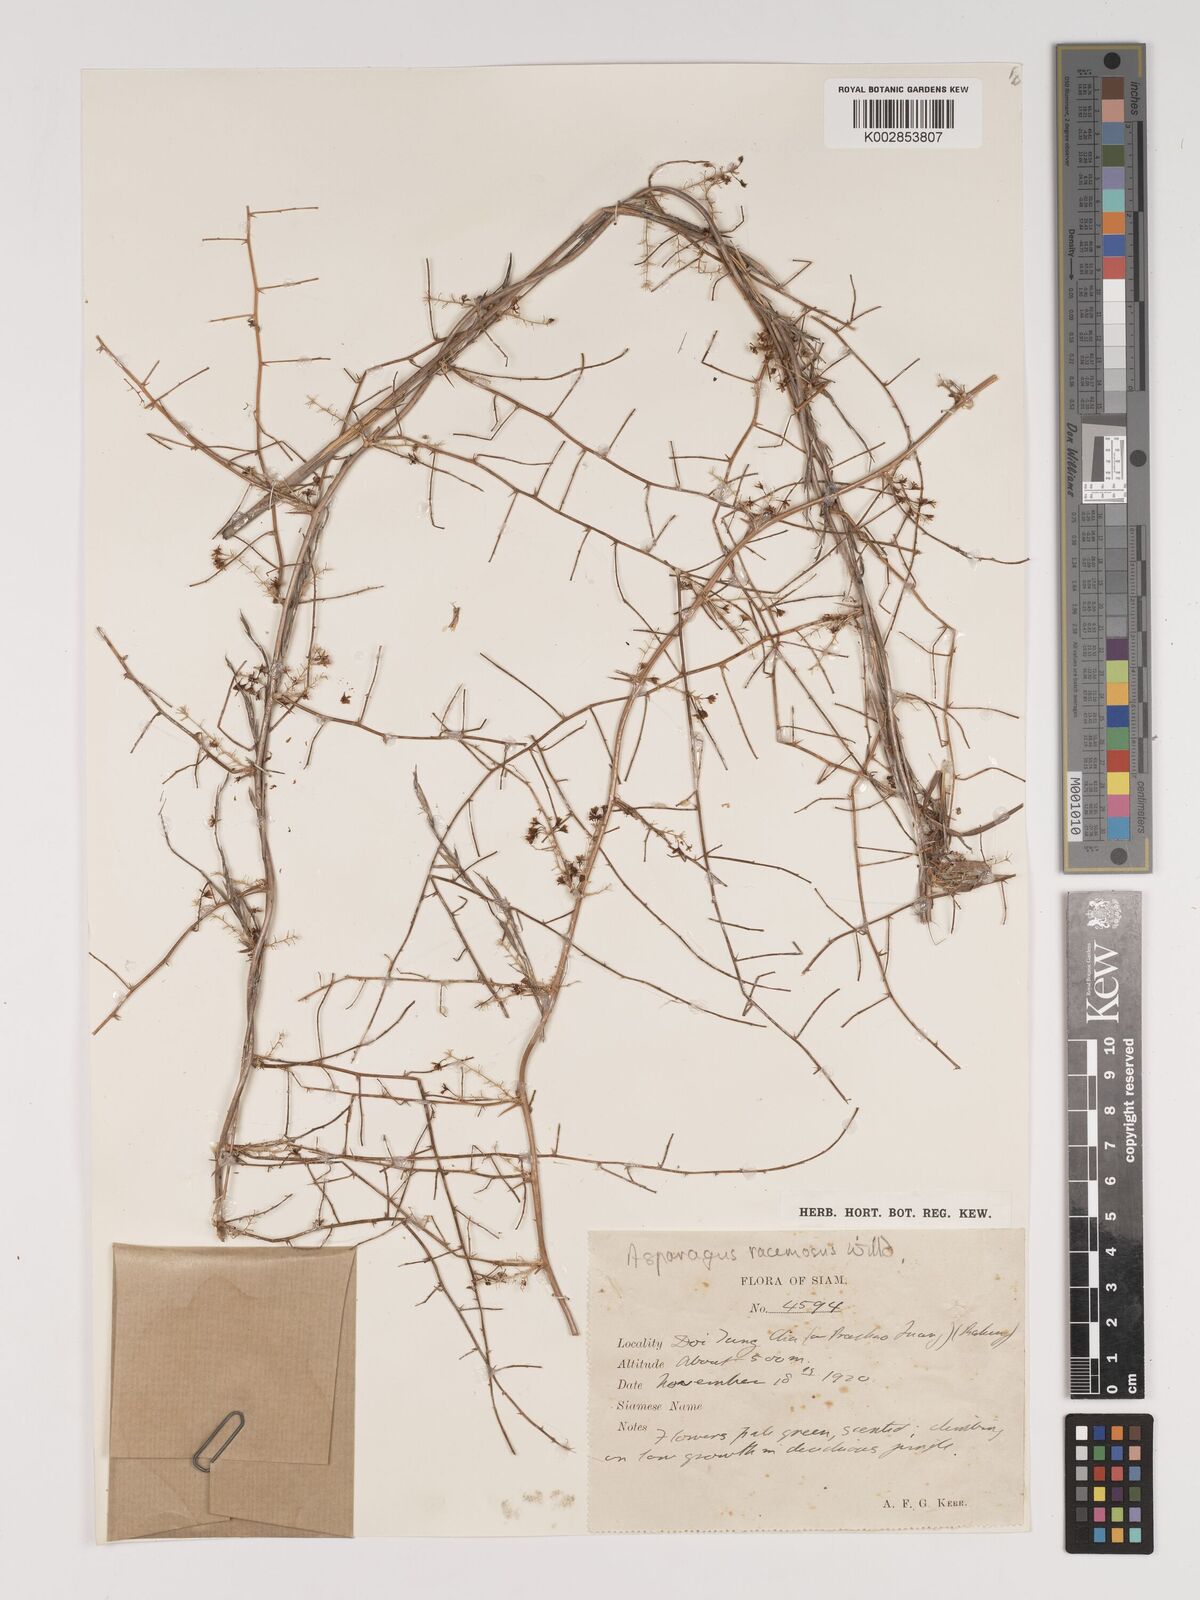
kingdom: Plantae
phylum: Tracheophyta
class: Liliopsida
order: Asparagales
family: Asparagaceae
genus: Asparagus
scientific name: Asparagus racemosus
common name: Asparagus-fern
